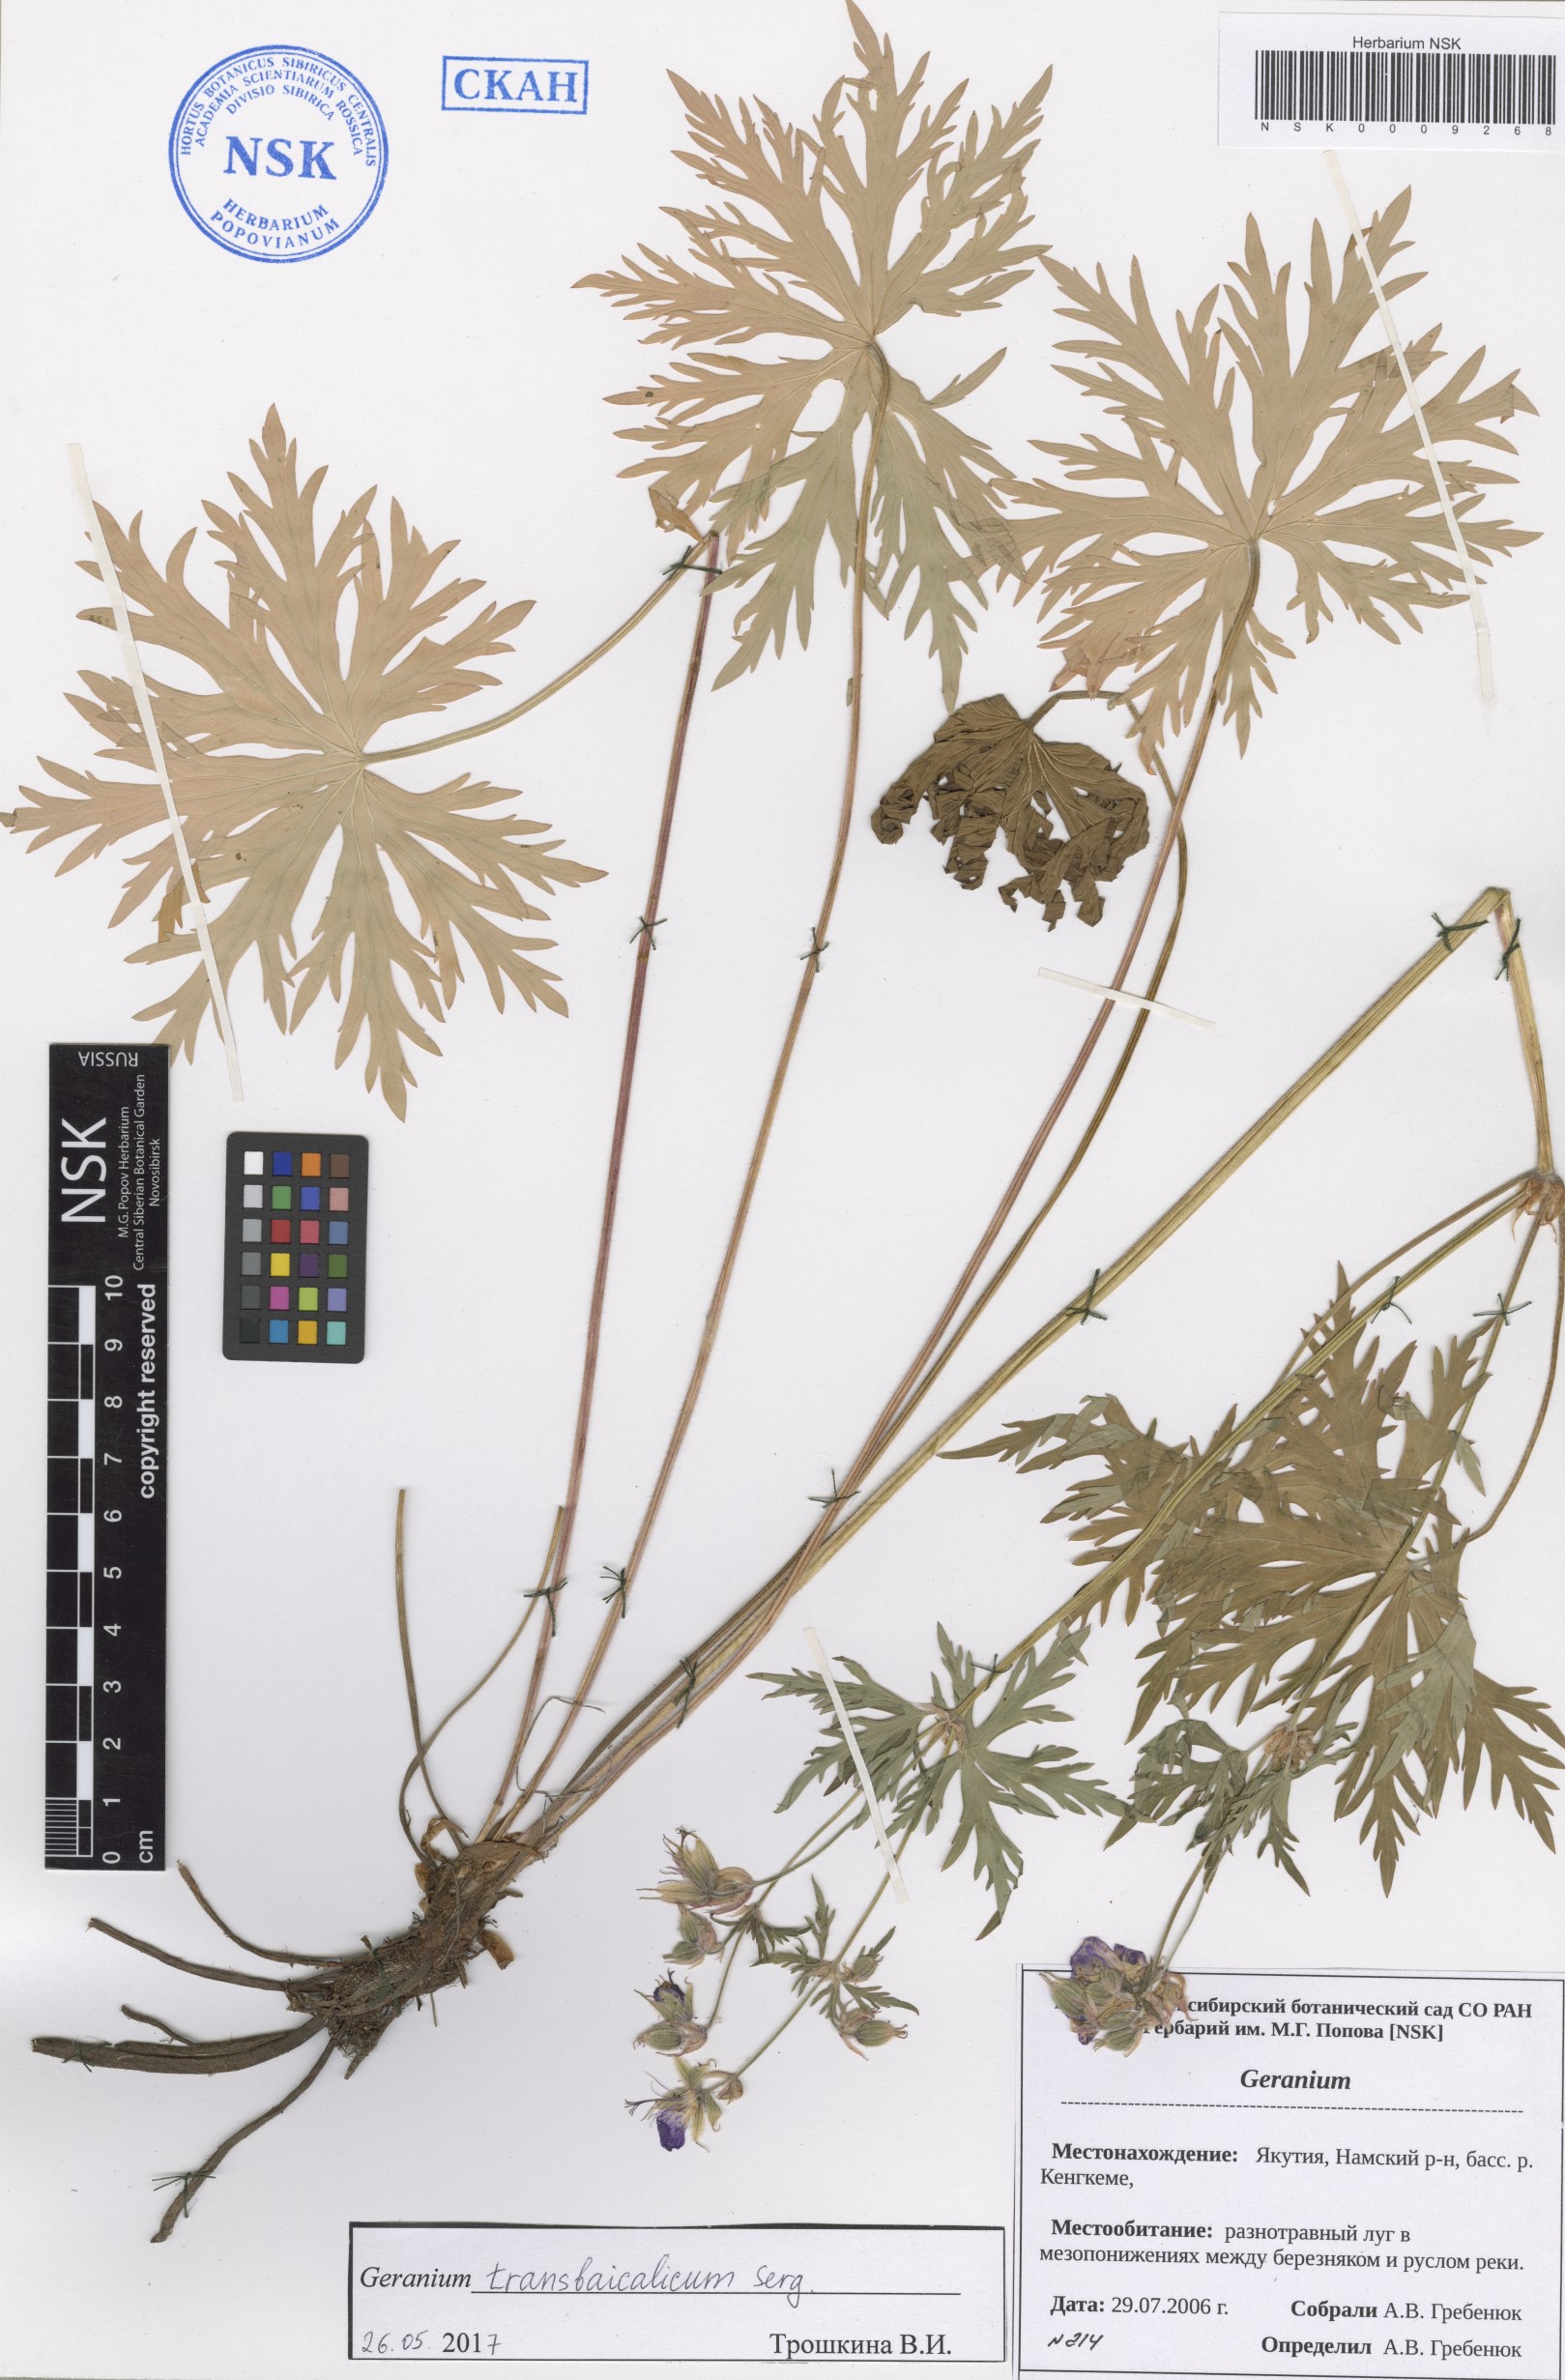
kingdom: Plantae
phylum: Tracheophyta
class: Magnoliopsida
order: Geraniales
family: Geraniaceae
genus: Geranium
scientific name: Geranium pratense
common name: Meadow crane's-bill
